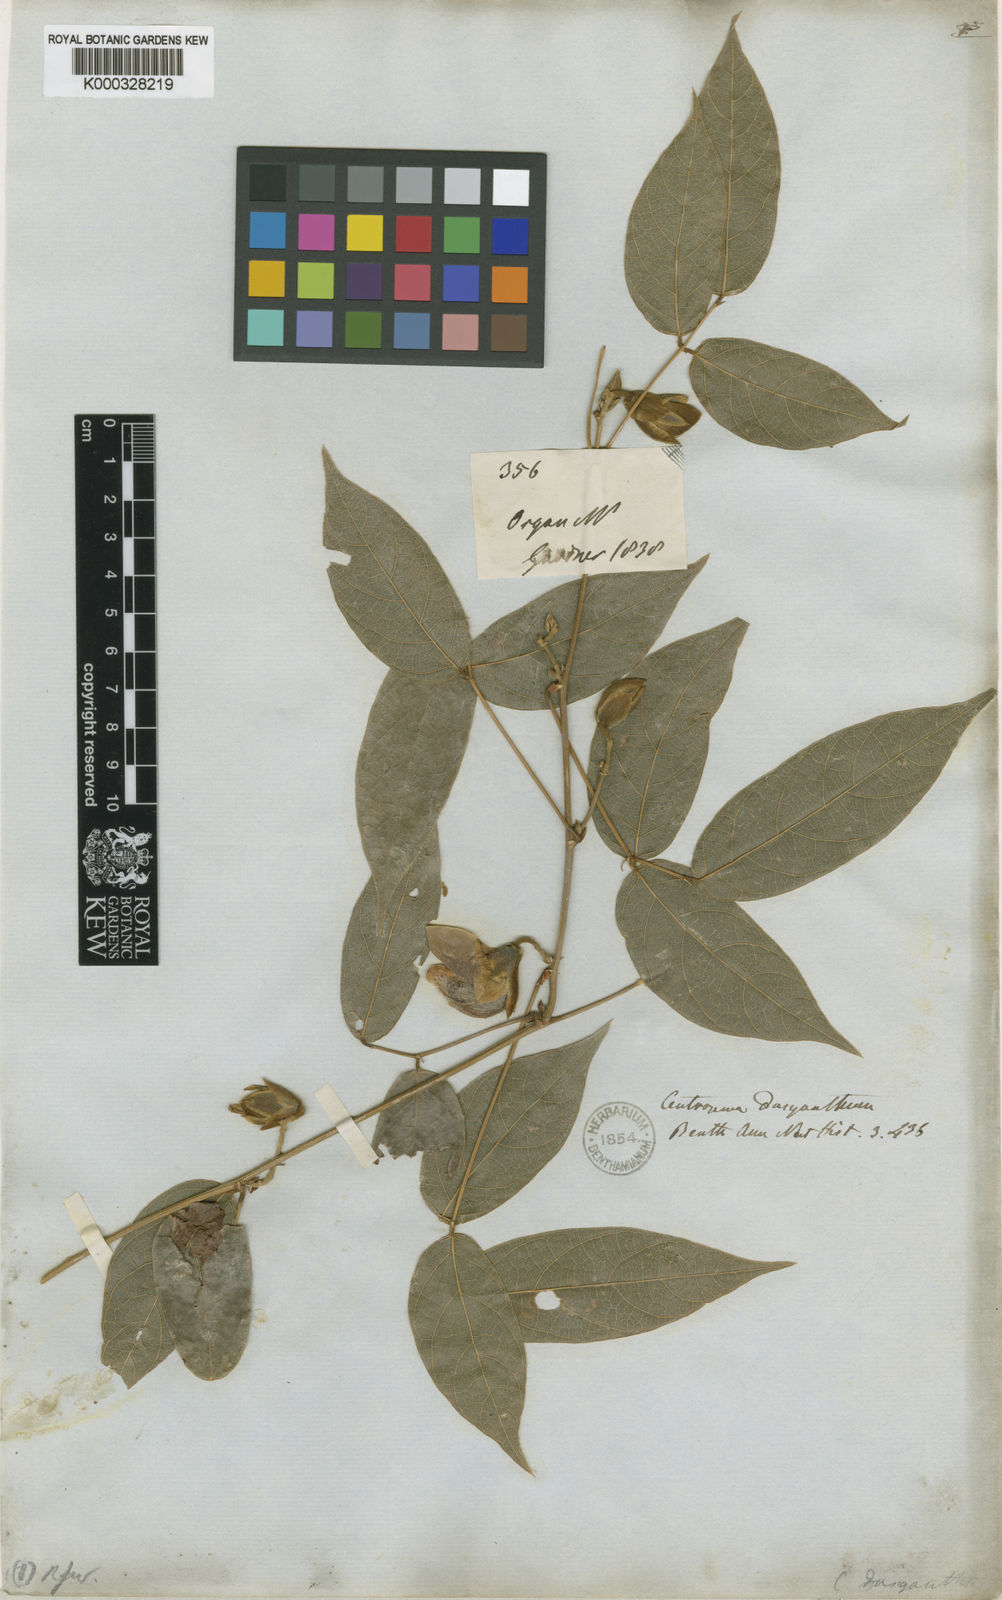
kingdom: Plantae
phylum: Tracheophyta
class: Magnoliopsida
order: Fabales
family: Fabaceae
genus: Centrosema
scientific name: Centrosema dasyanthum
